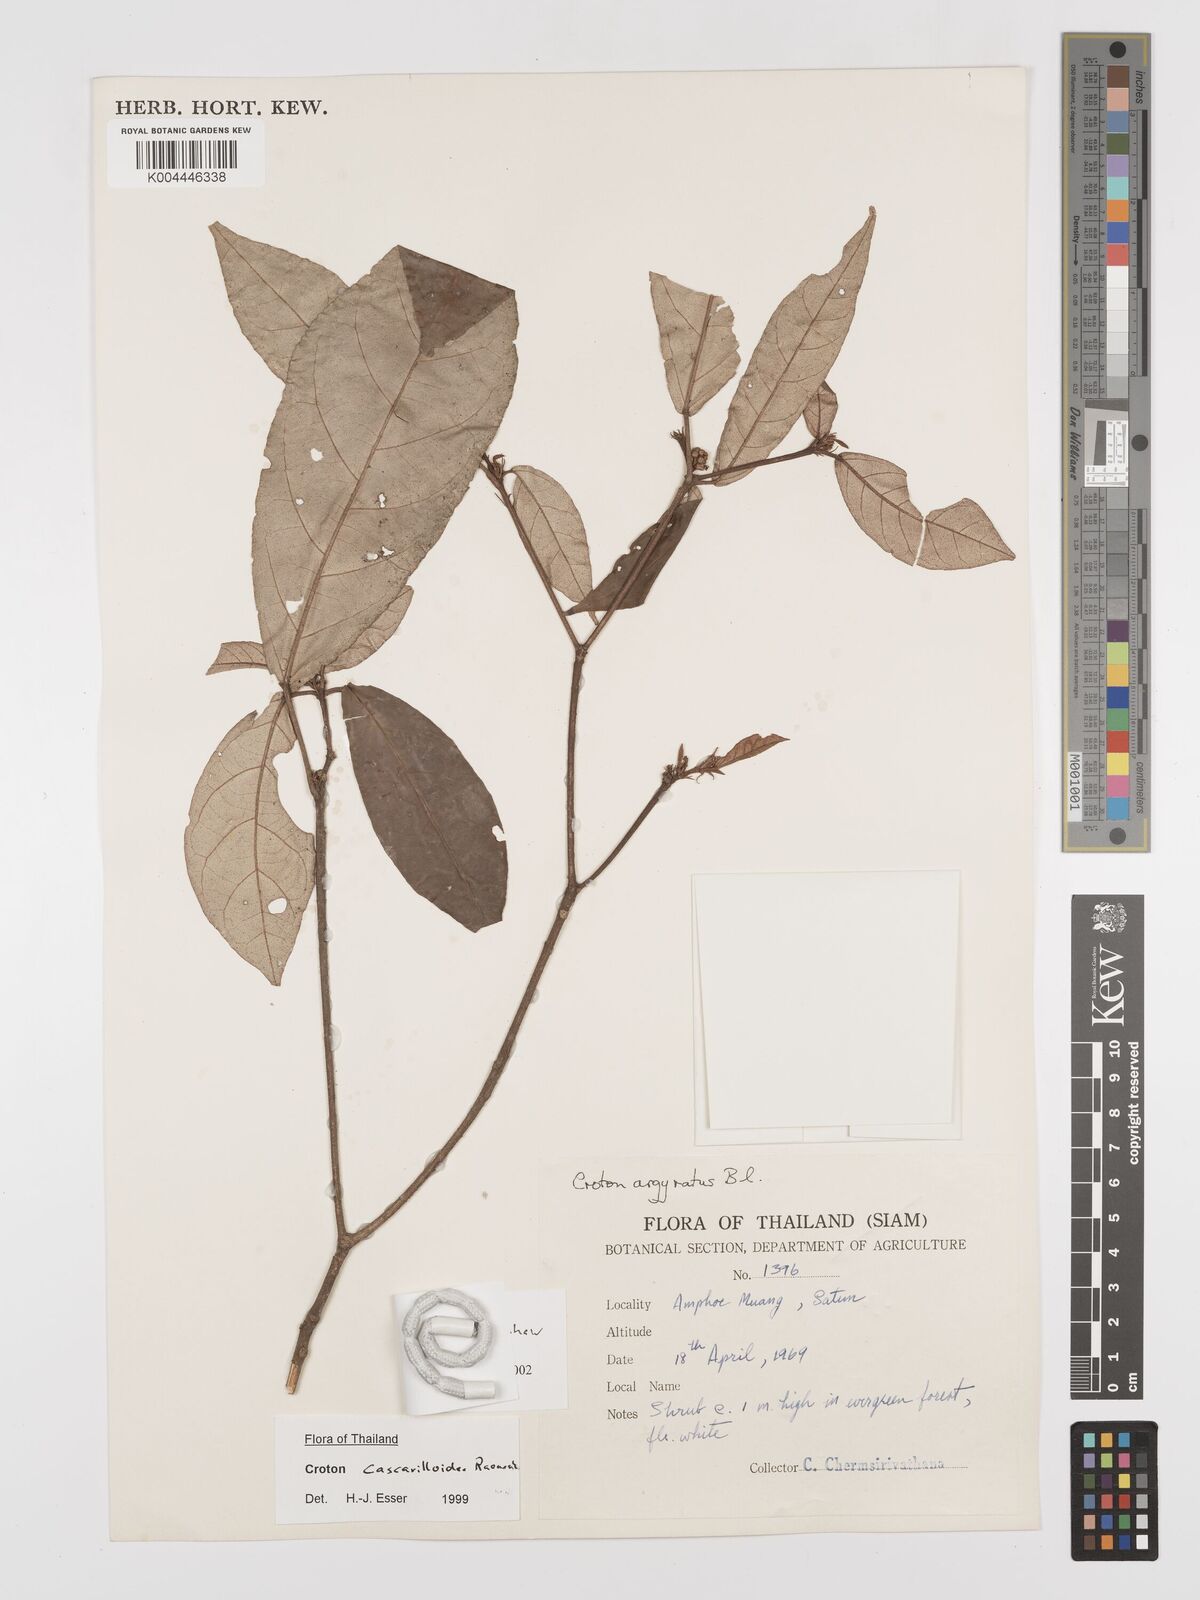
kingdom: Plantae
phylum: Tracheophyta
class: Magnoliopsida
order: Malpighiales
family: Euphorbiaceae
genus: Croton
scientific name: Croton sepalinus
